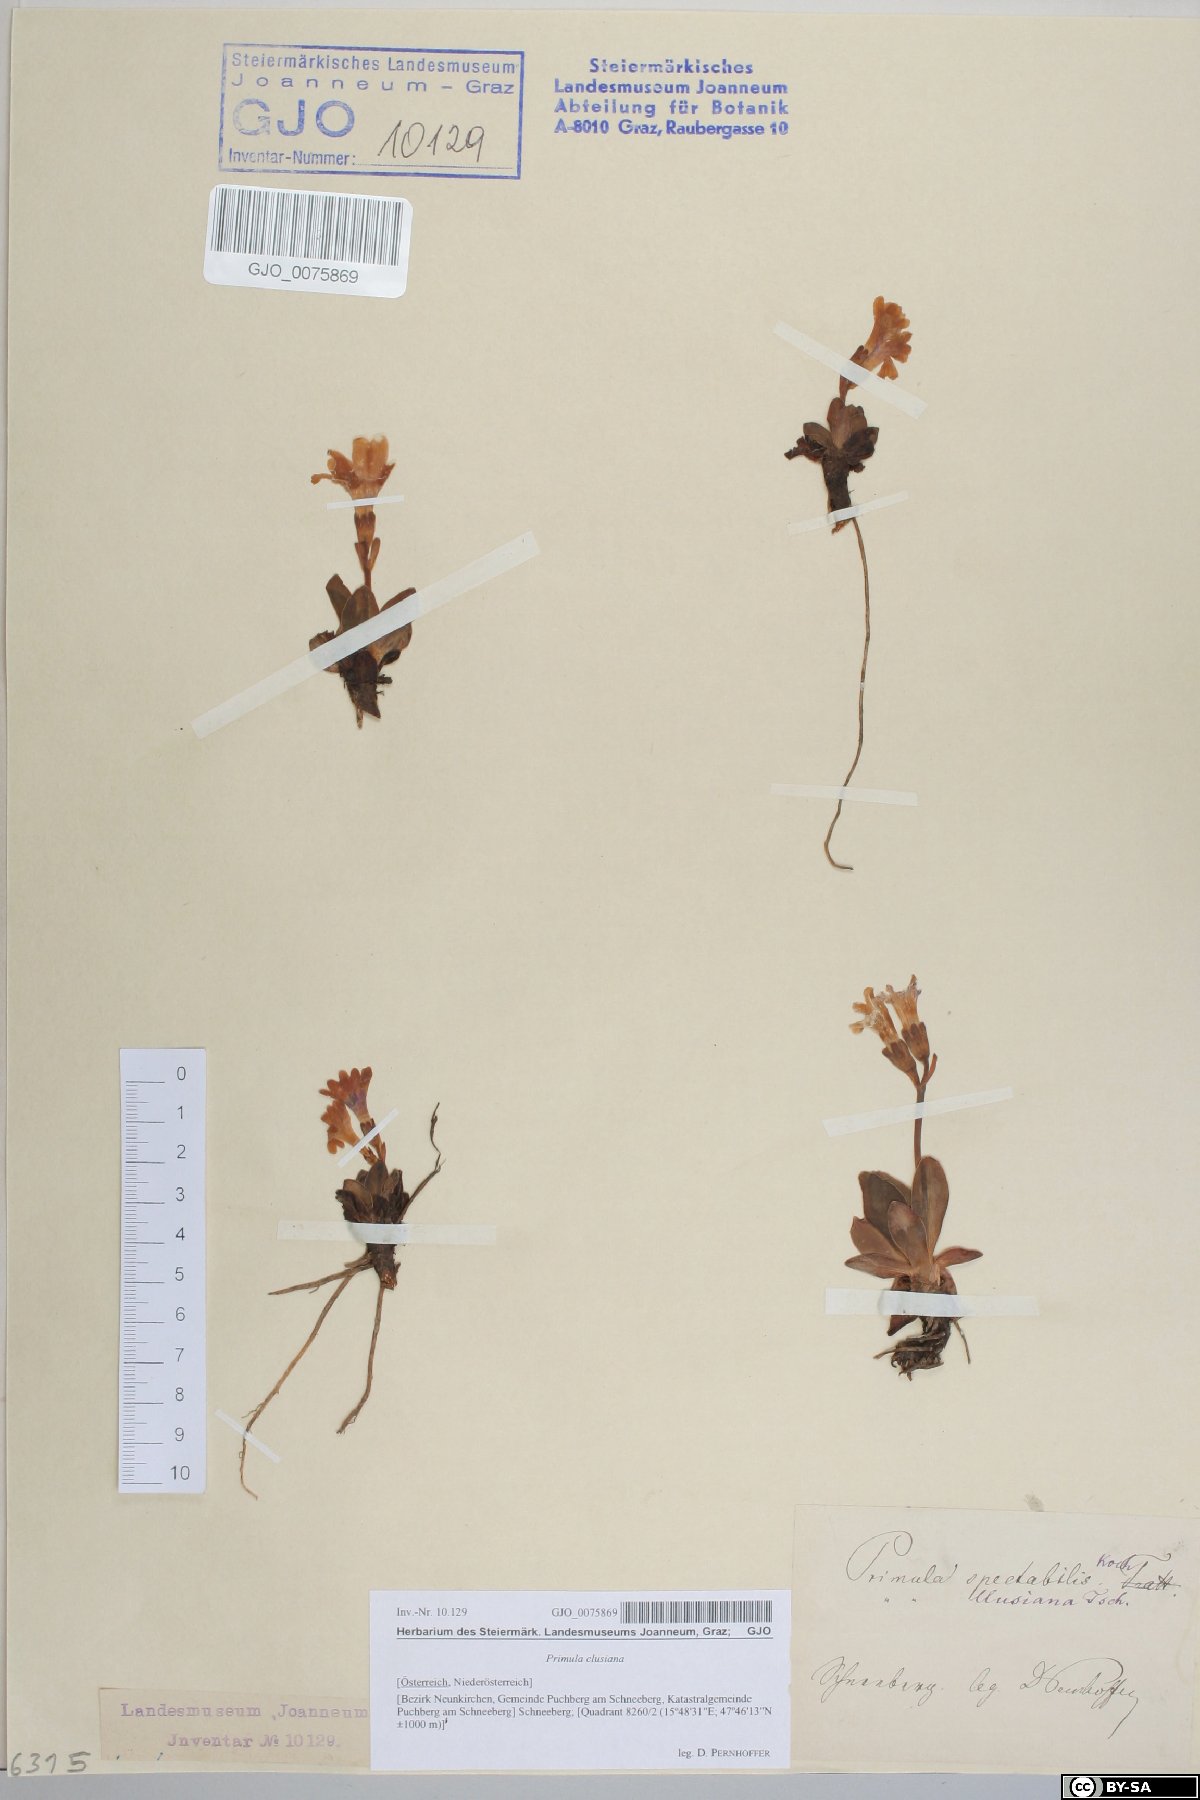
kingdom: Plantae
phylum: Tracheophyta
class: Magnoliopsida
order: Ericales
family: Primulaceae
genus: Primula
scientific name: Primula clusiana
